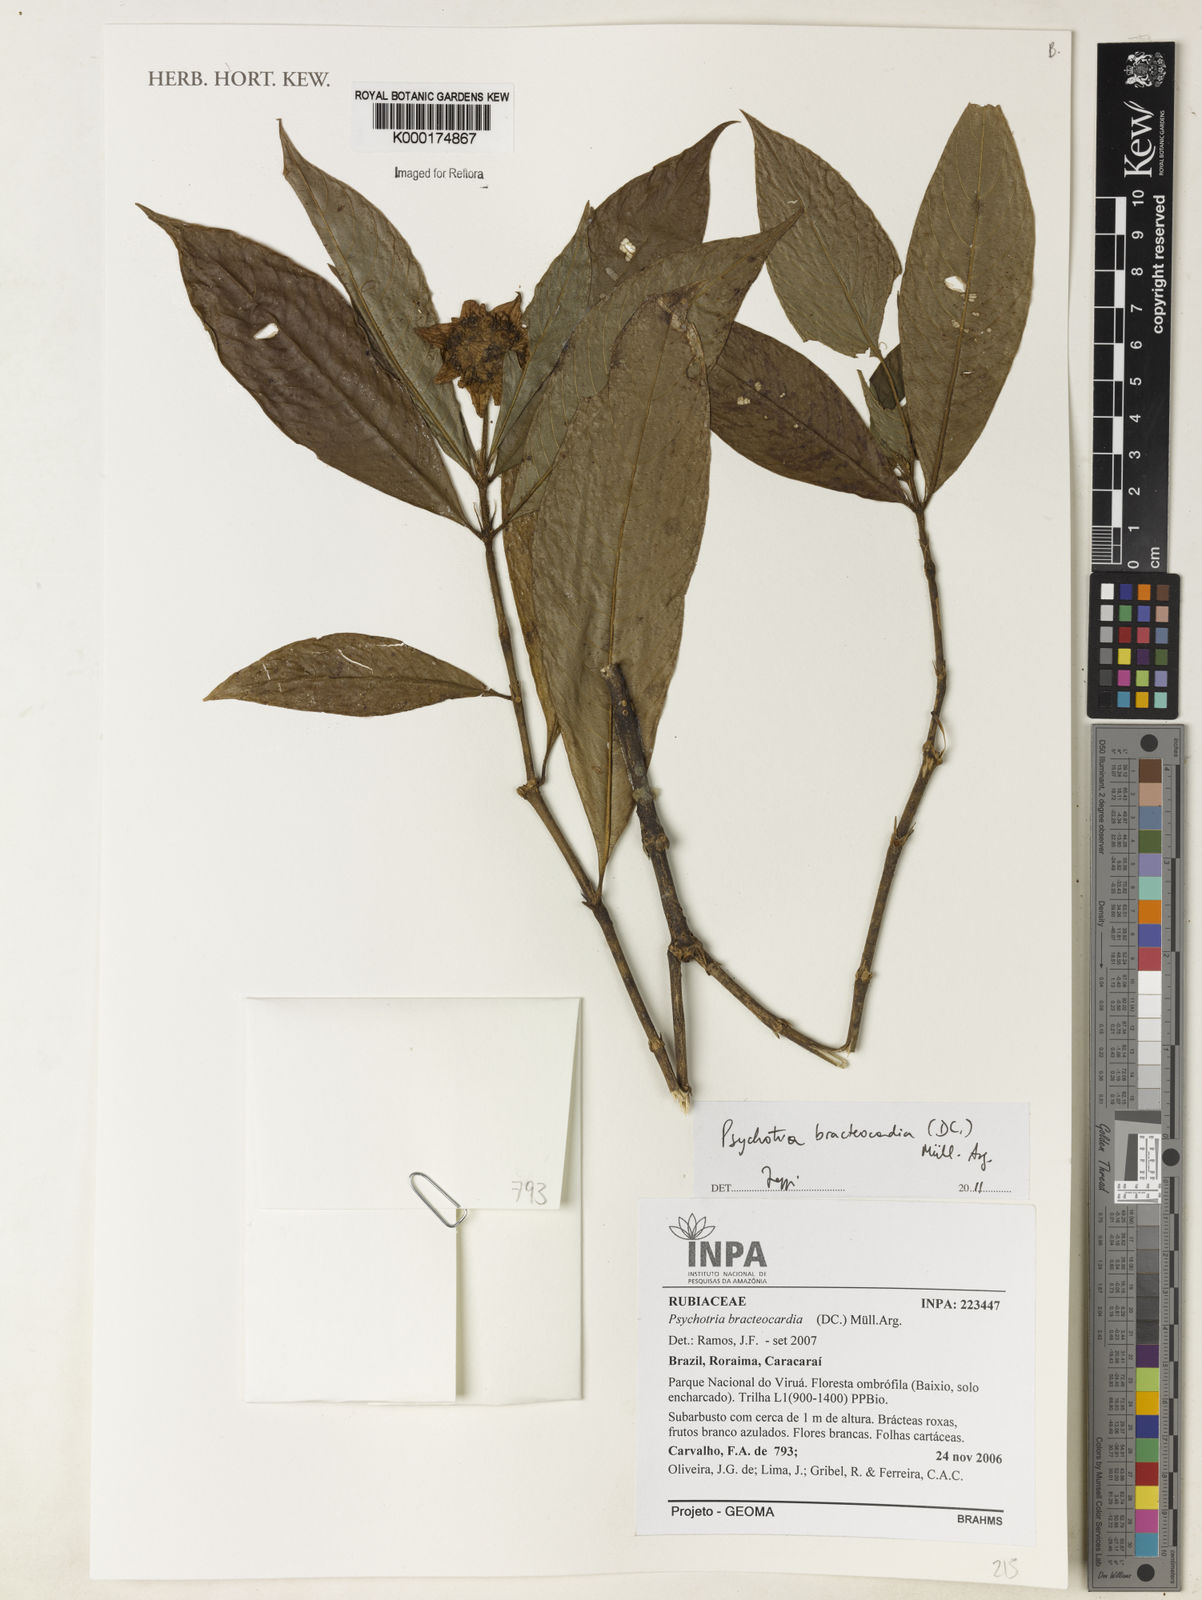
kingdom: Plantae
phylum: Tracheophyta
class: Magnoliopsida
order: Gentianales
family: Rubiaceae
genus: Psychotria
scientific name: Psychotria
